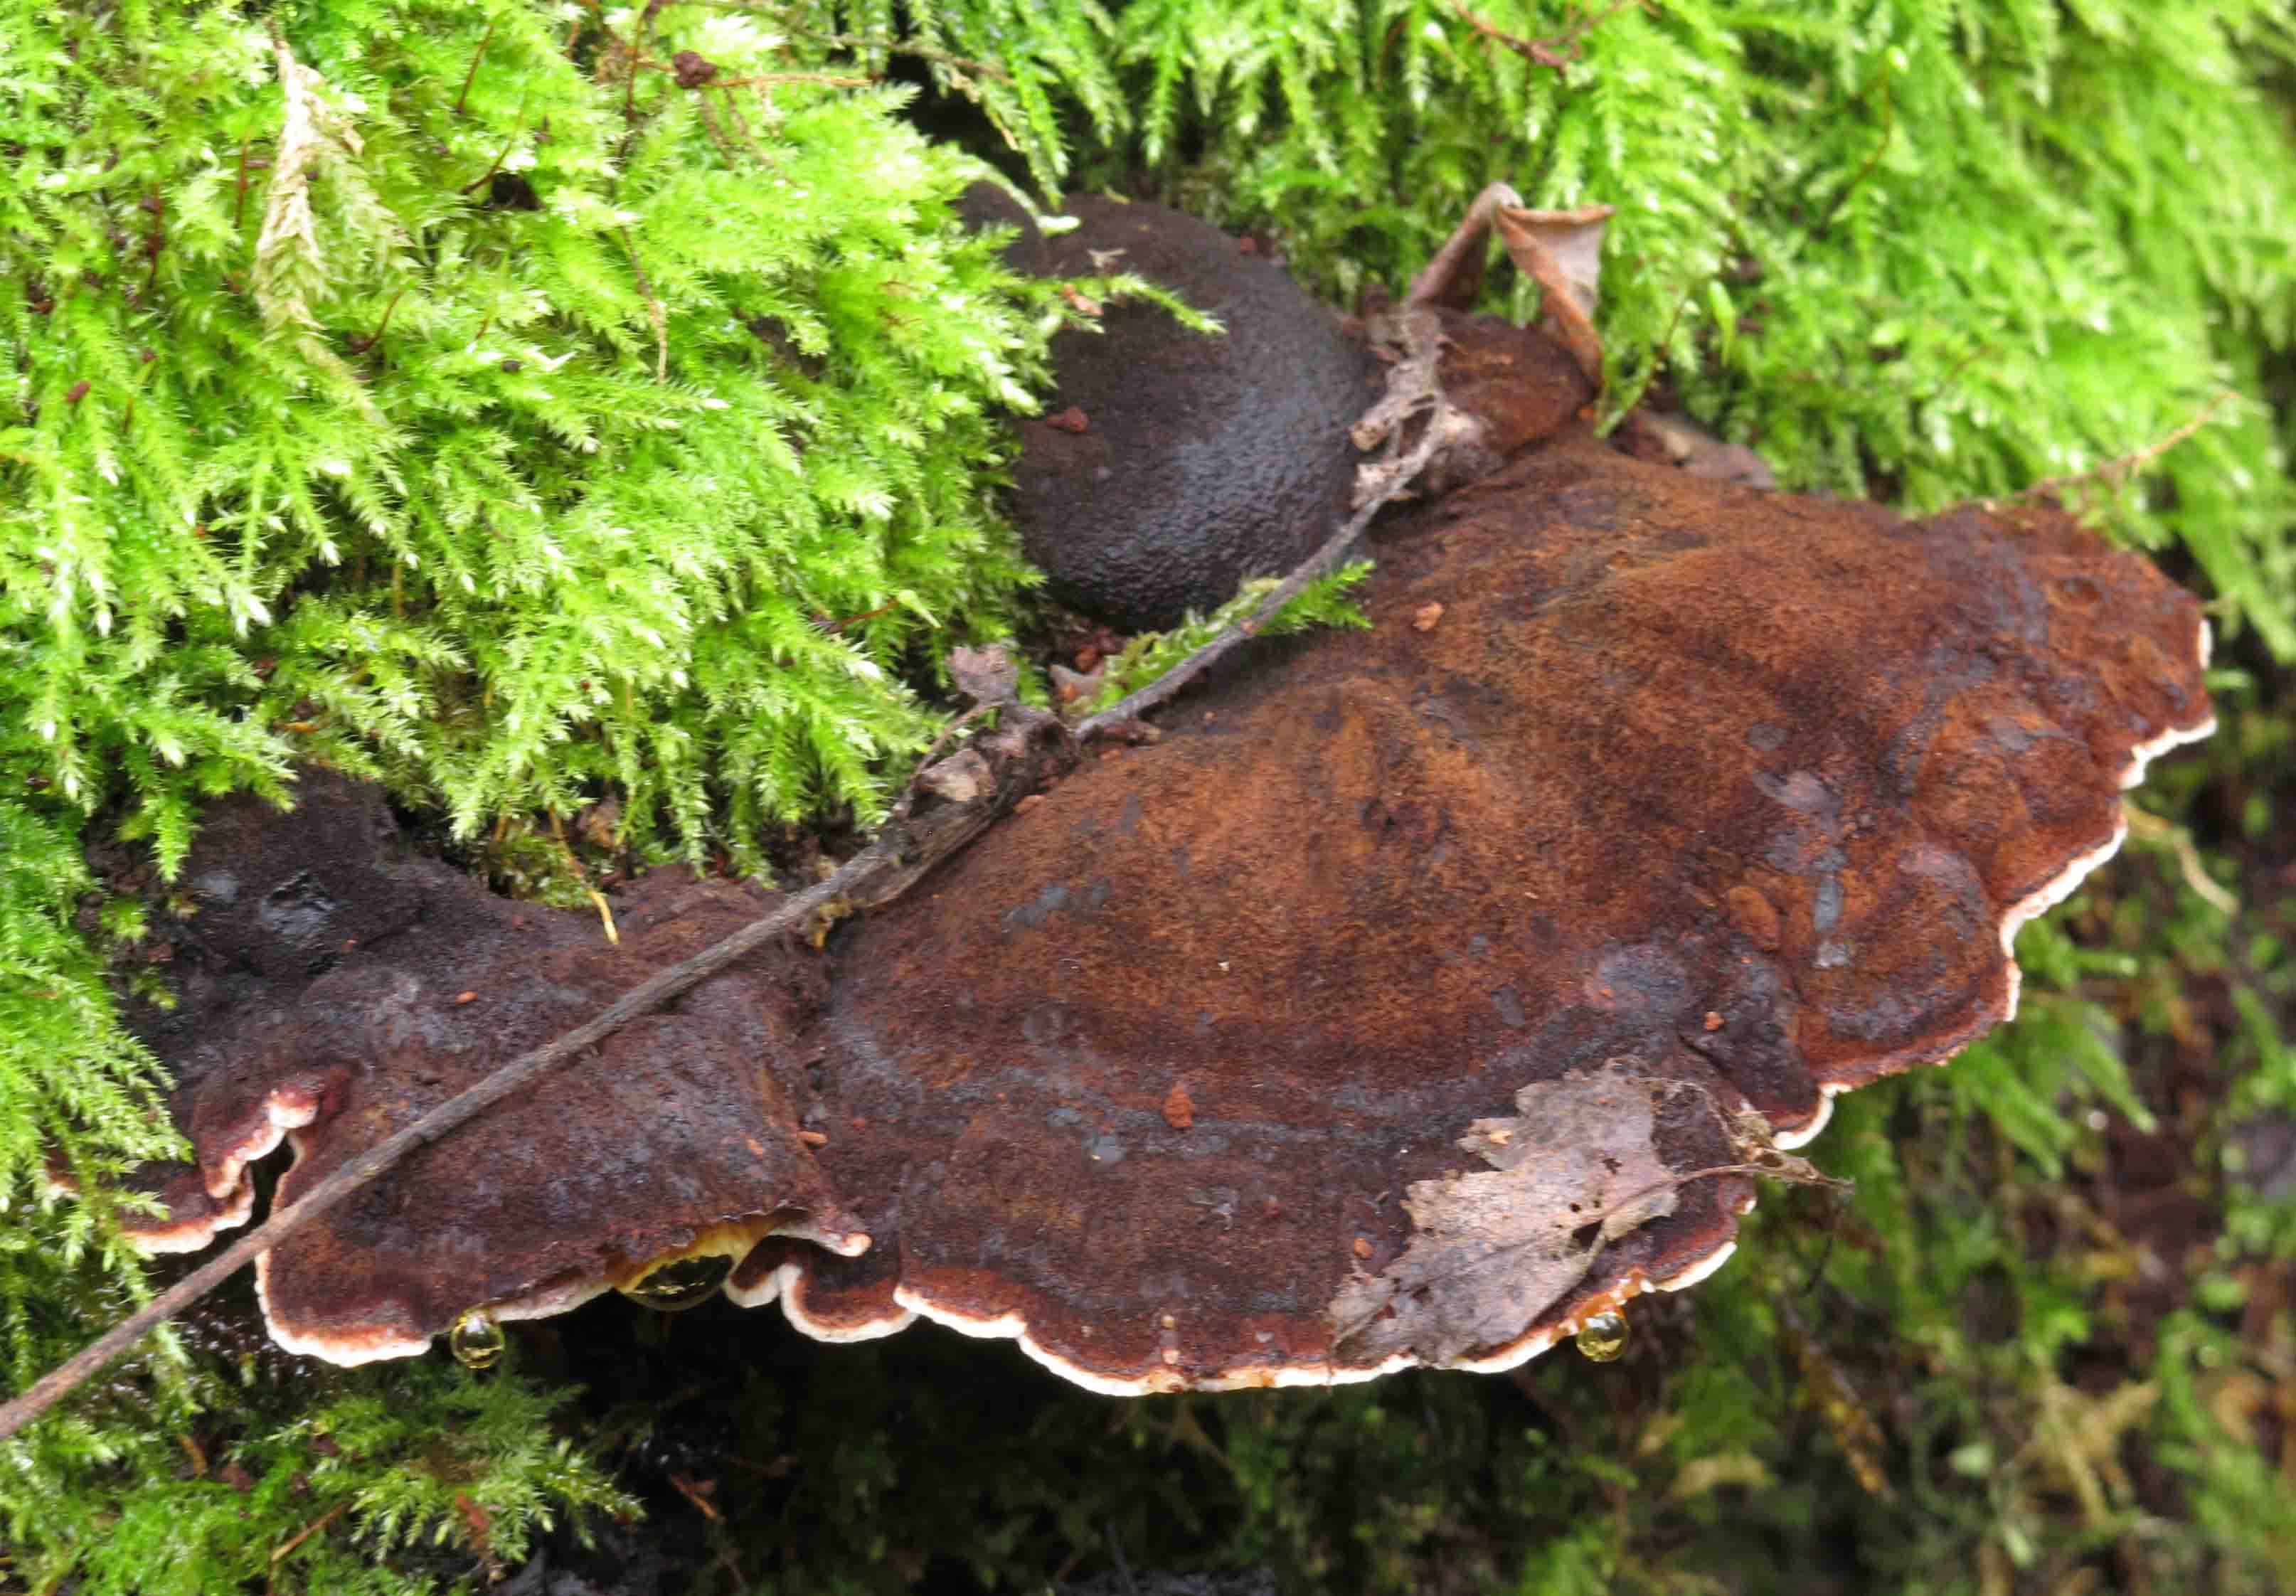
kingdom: Fungi
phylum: Basidiomycota
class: Agaricomycetes
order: Polyporales
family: Ischnodermataceae
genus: Ischnoderma
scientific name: Ischnoderma benzoinum
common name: gran-tjæreporesvamp
